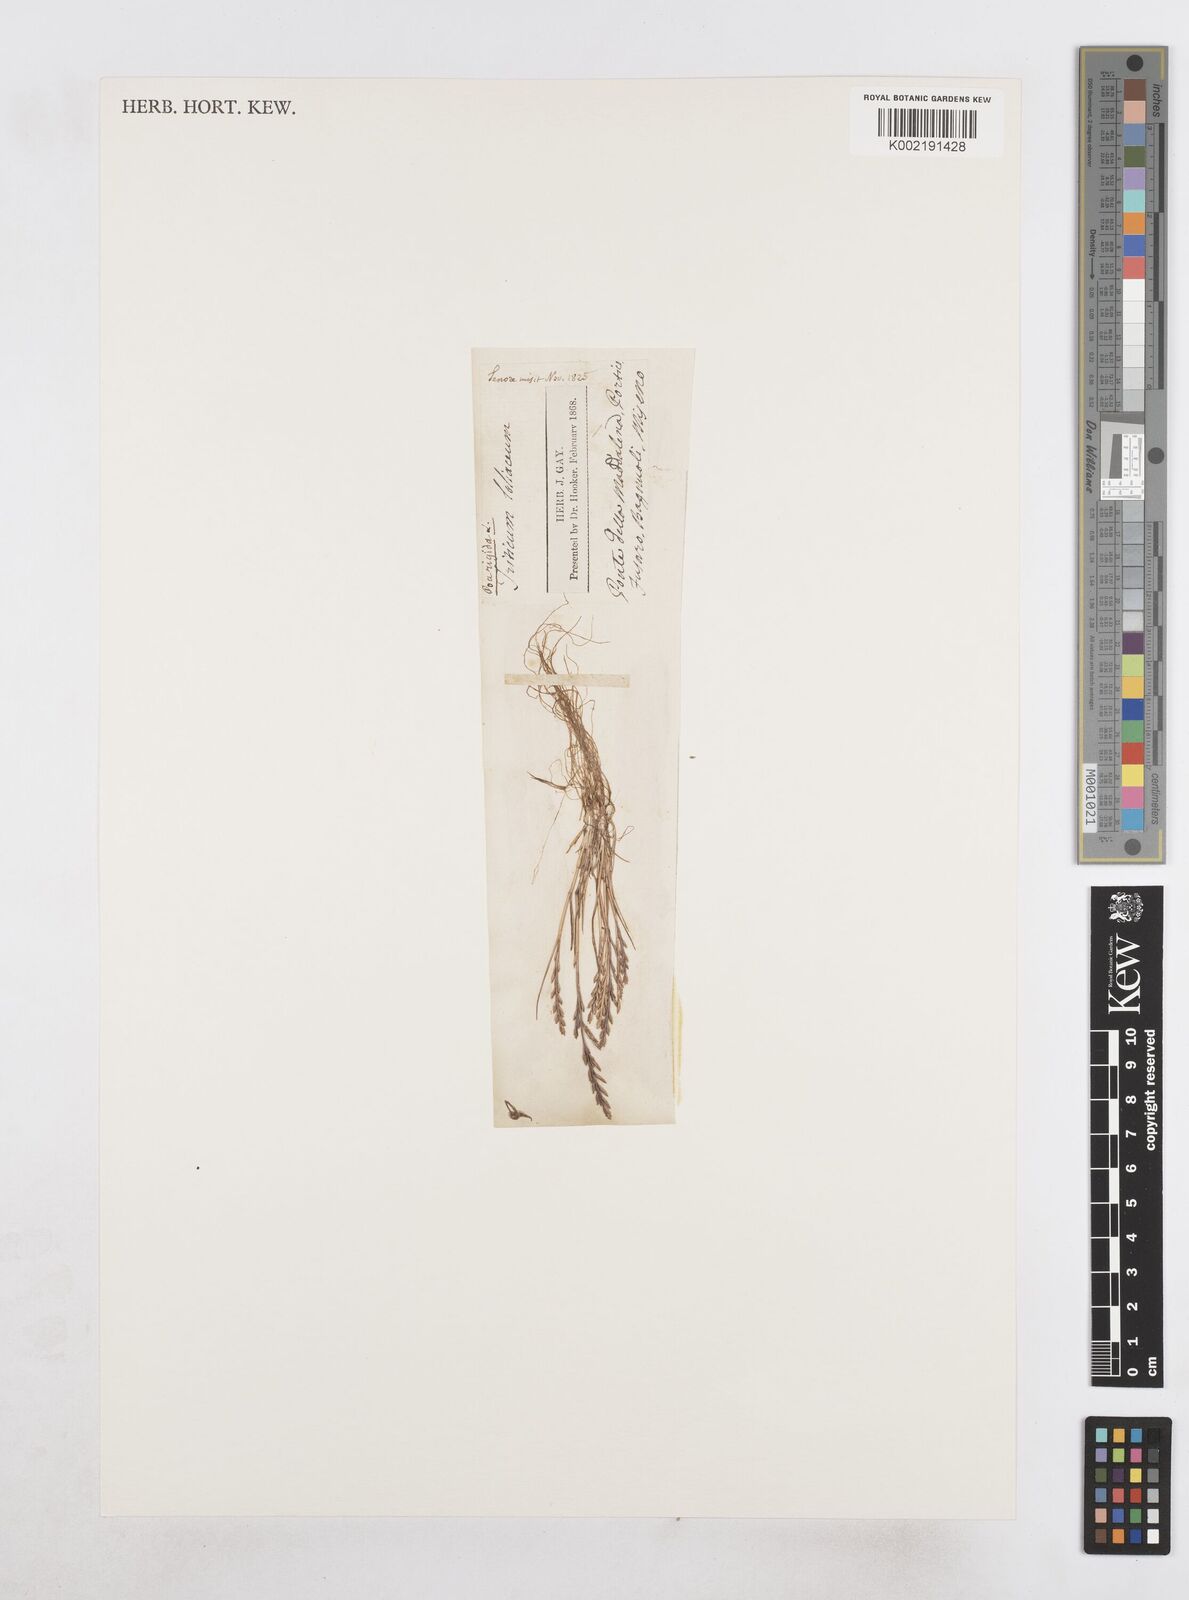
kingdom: Plantae
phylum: Tracheophyta
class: Liliopsida
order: Poales
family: Poaceae
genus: Catapodium
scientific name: Catapodium rigidum
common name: Fern-grass
